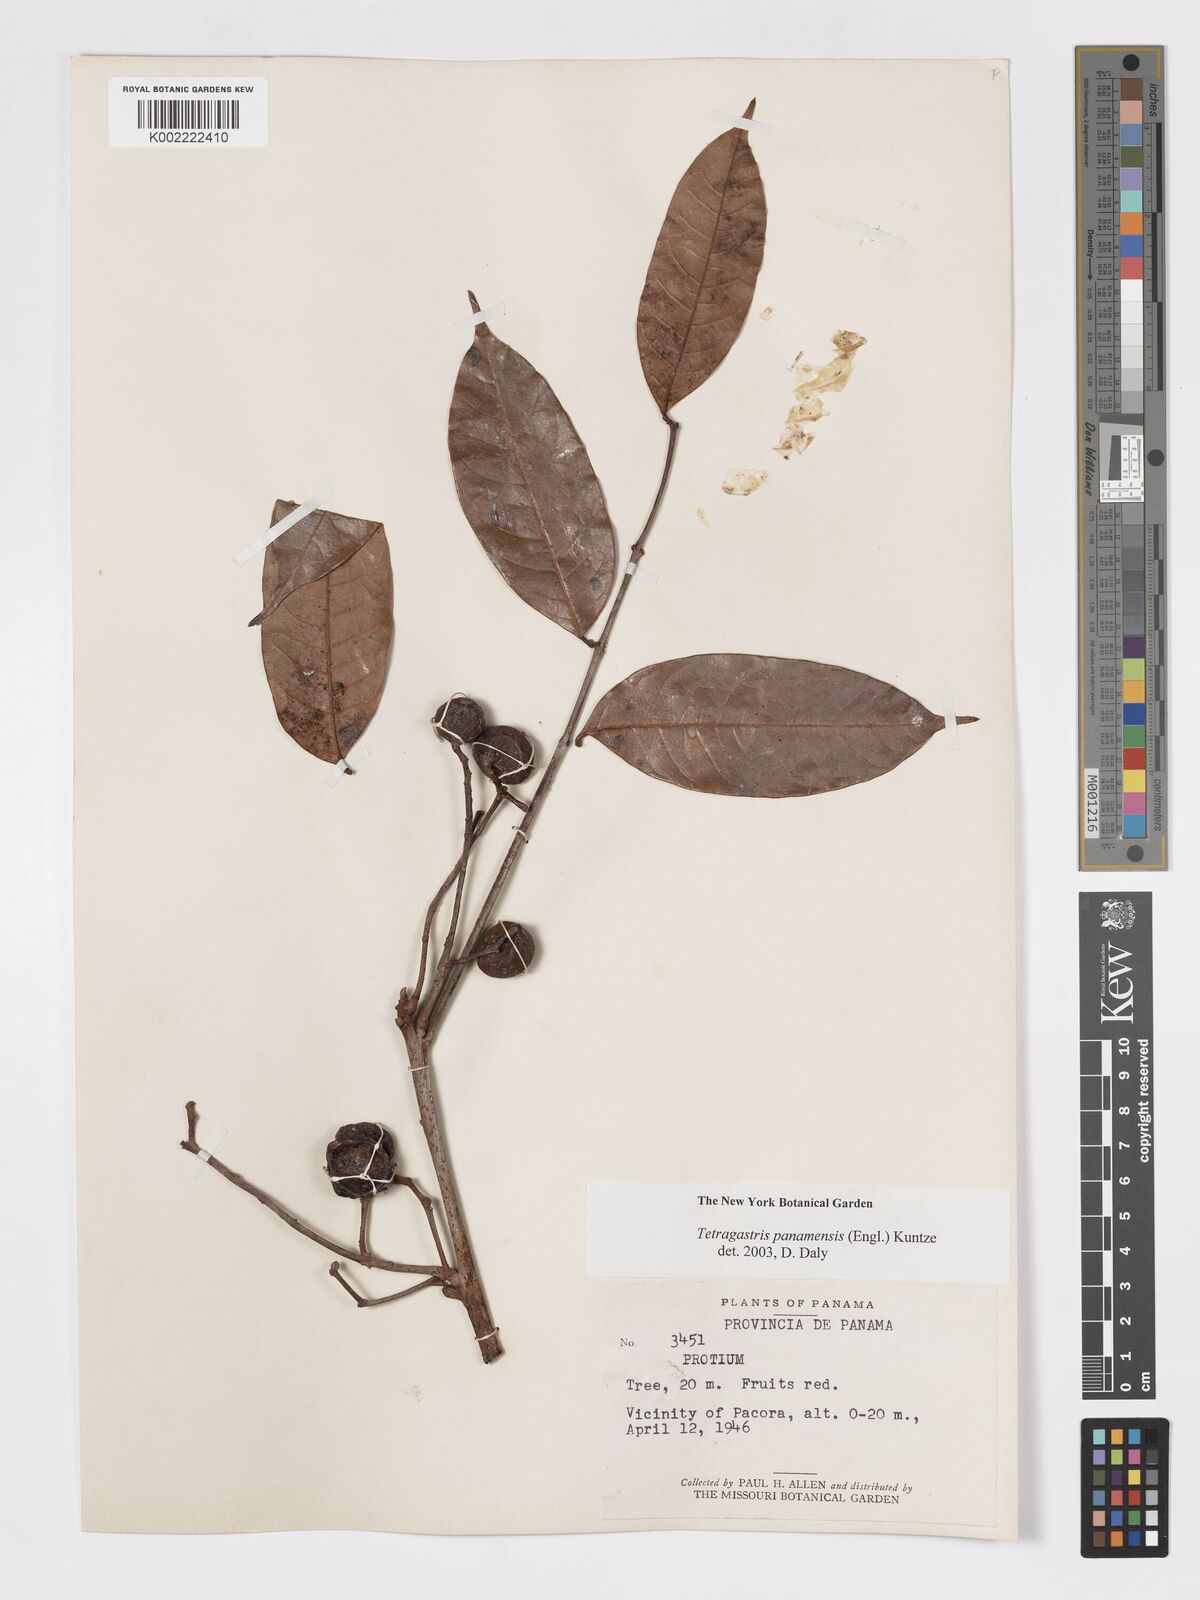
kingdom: Plantae
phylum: Tracheophyta
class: Magnoliopsida
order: Sapindales
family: Burseraceae
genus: Tetragastris
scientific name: Tetragastris panamensis
